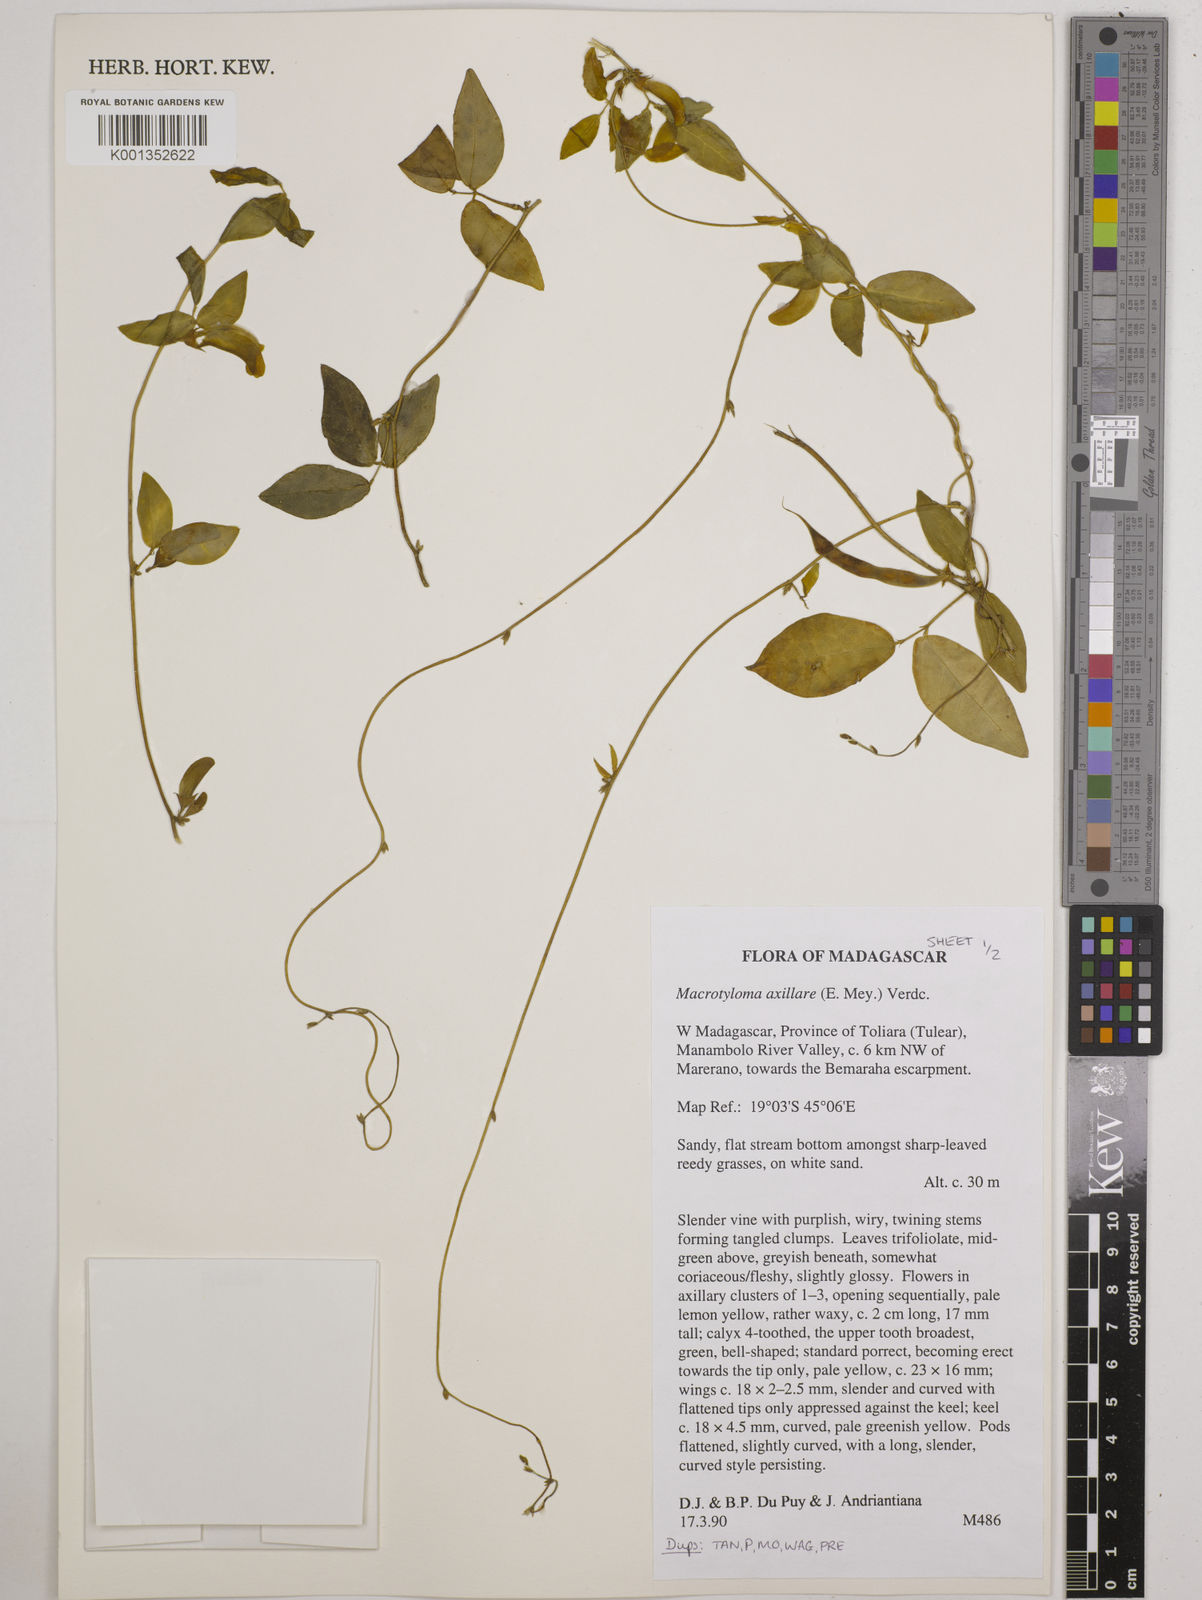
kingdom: Plantae
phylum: Tracheophyta
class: Magnoliopsida
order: Fabales
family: Fabaceae
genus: Macrotyloma
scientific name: Macrotyloma
